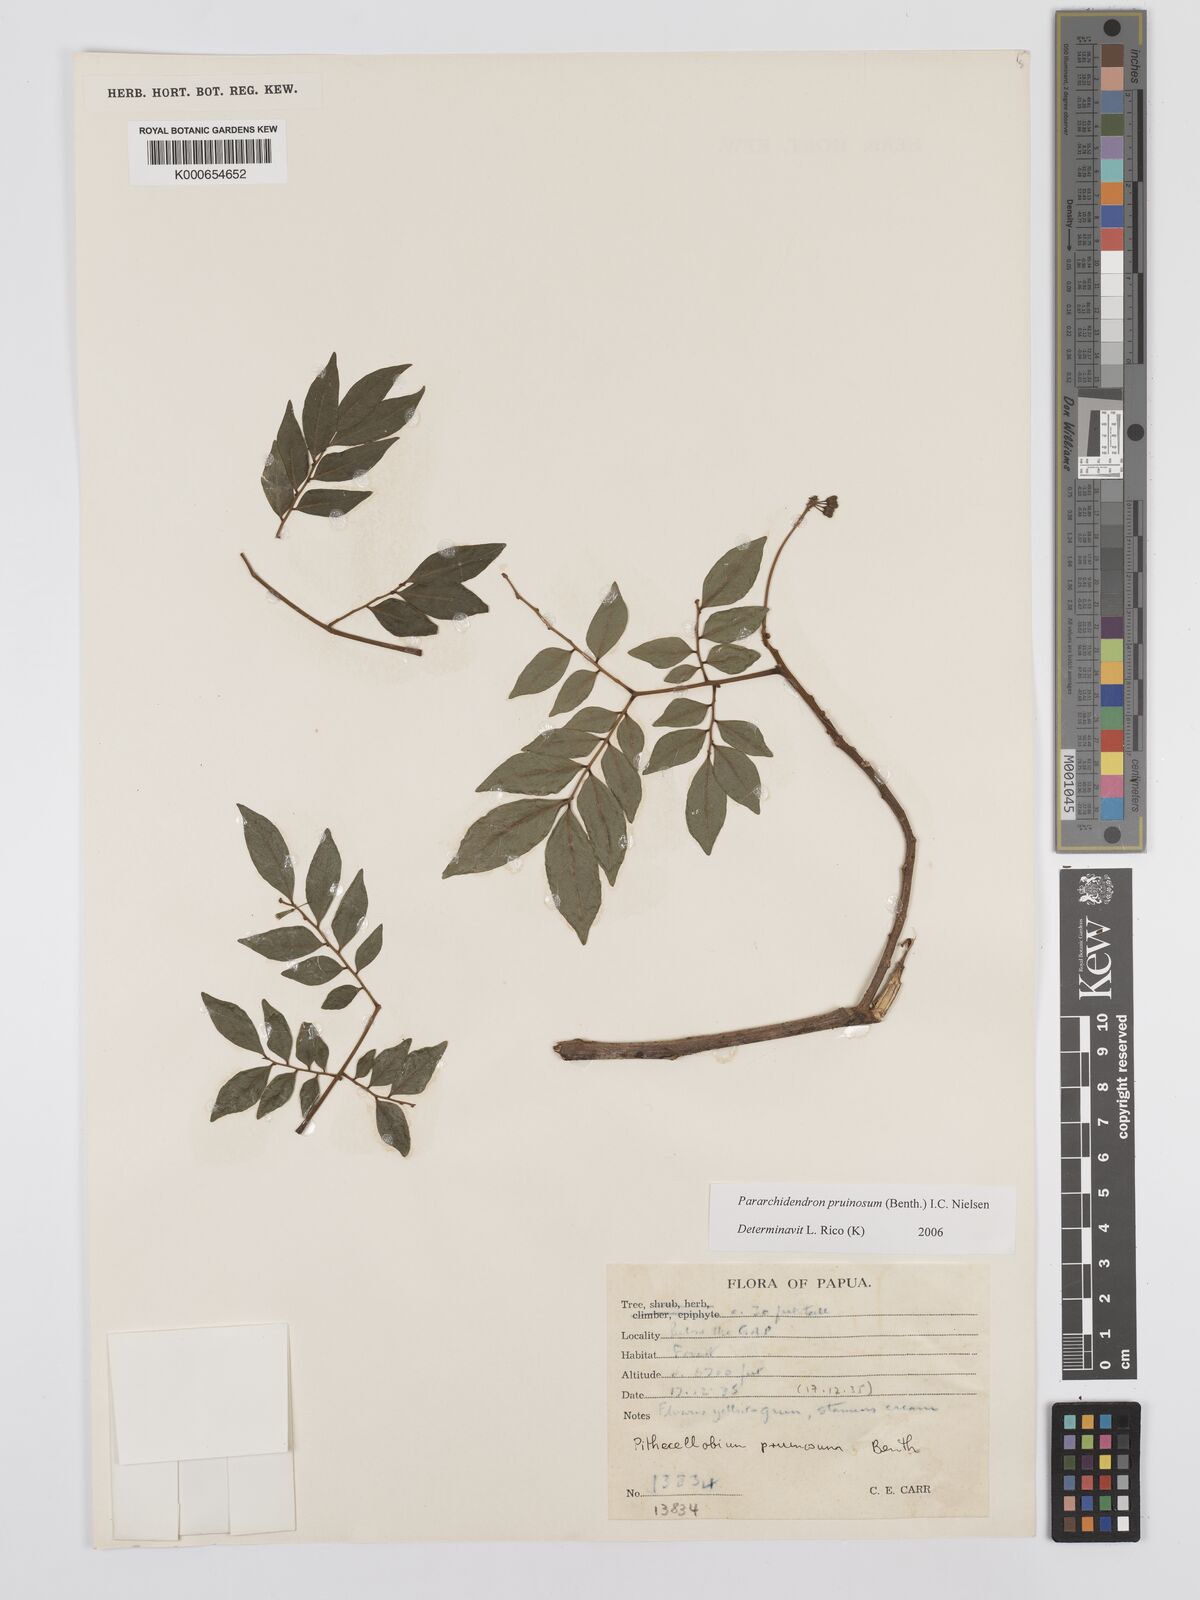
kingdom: Plantae
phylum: Tracheophyta
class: Magnoliopsida
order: Fabales
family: Fabaceae
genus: Pararchidendron
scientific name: Pararchidendron pruinosum
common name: Tulip siris
